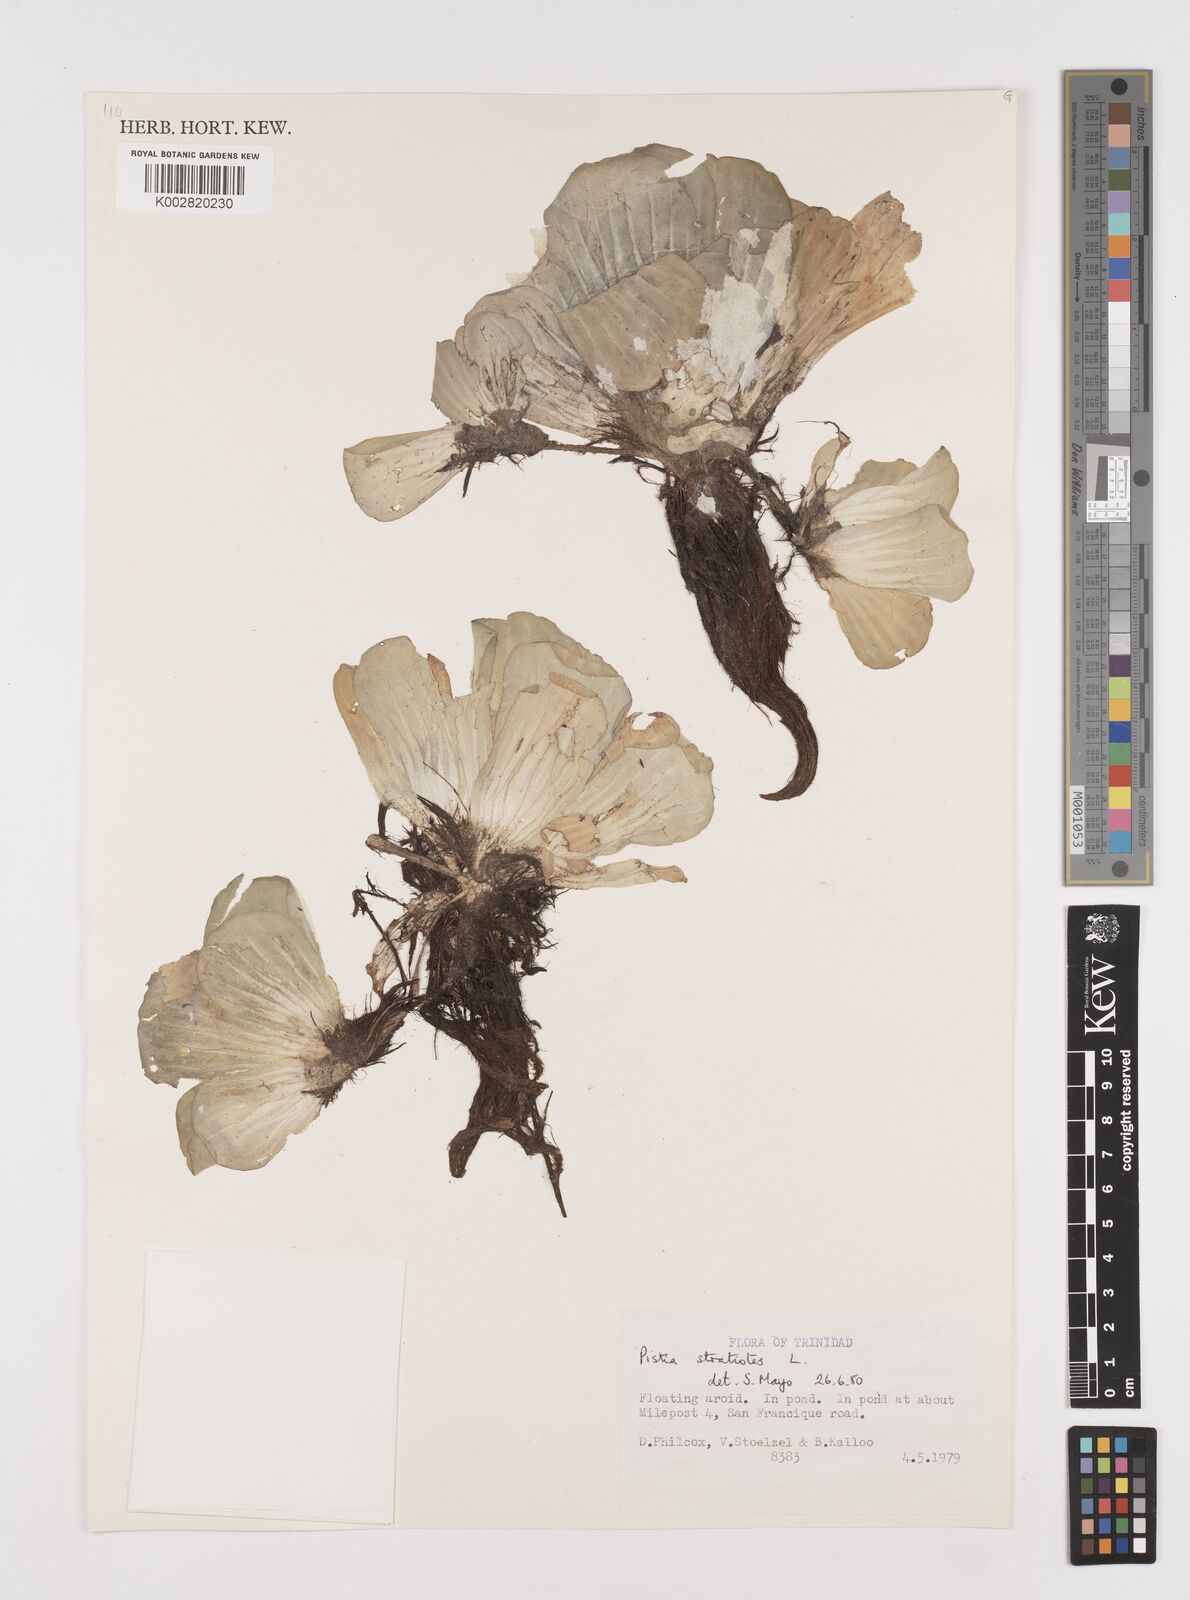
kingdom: Plantae
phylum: Tracheophyta
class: Liliopsida
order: Alismatales
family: Araceae
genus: Pistia
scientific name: Pistia stratiotes
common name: Water lettuce
